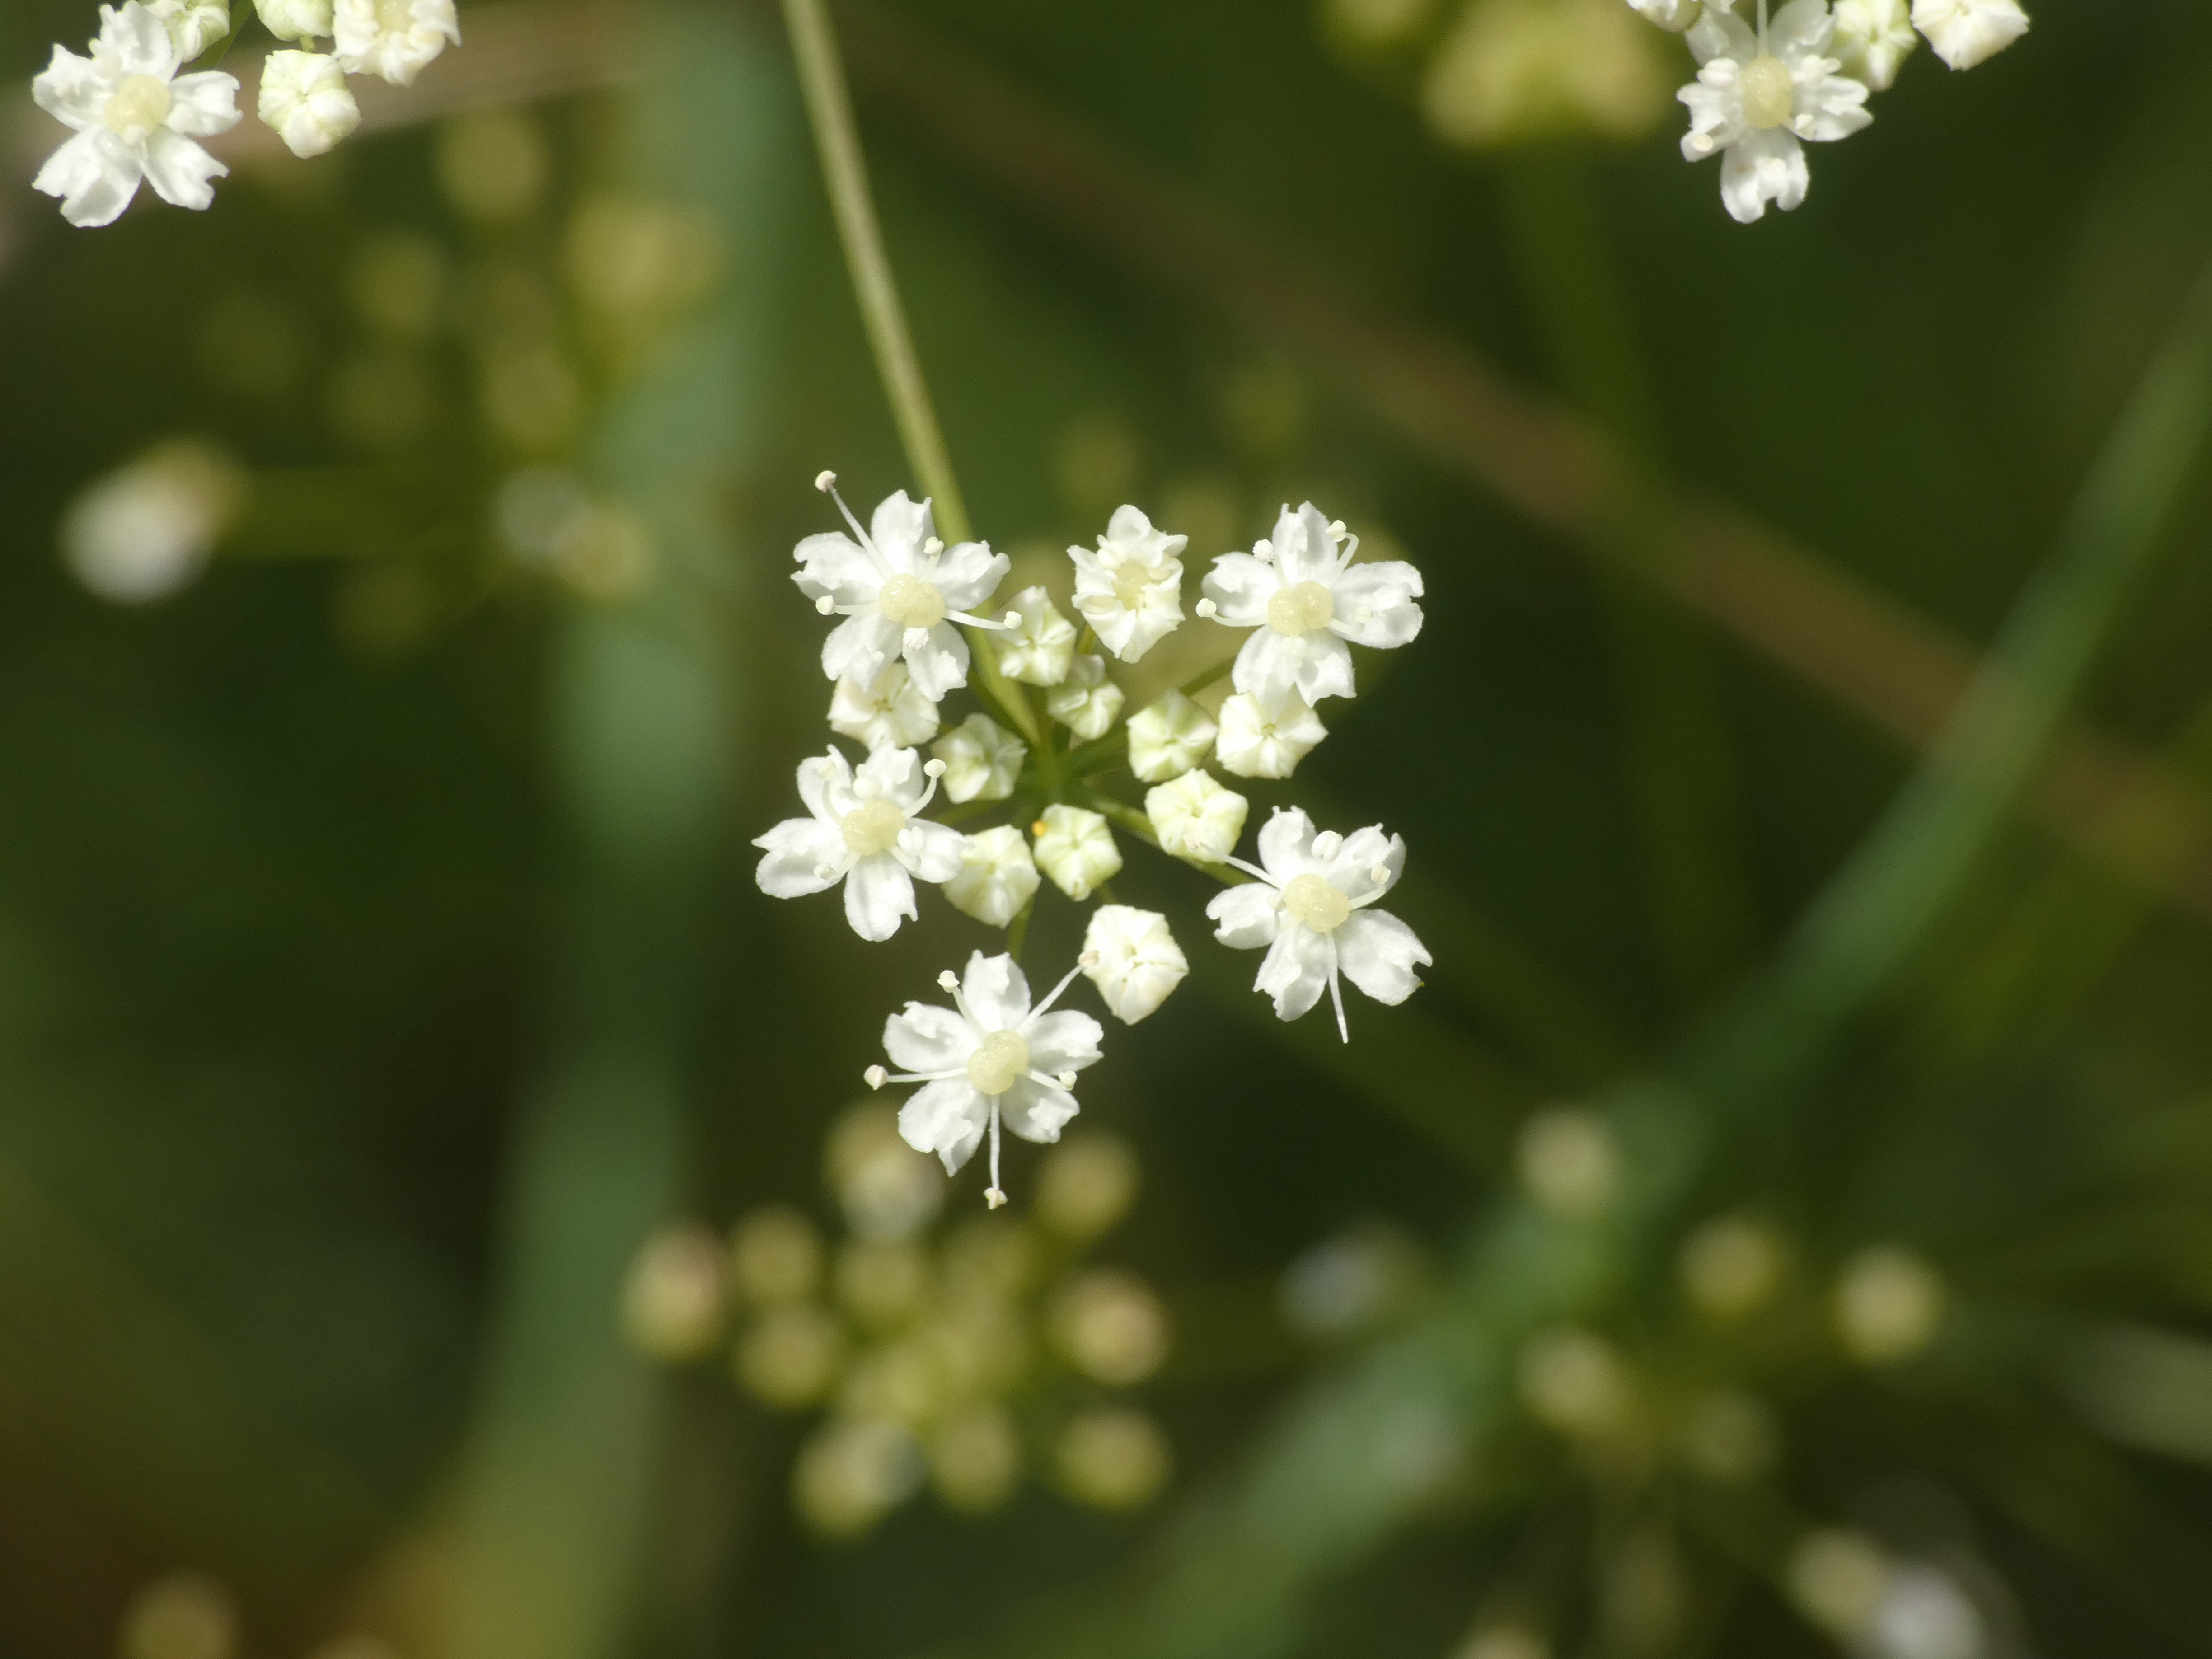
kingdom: Plantae
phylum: Tracheophyta
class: Magnoliopsida
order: Apiales
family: Apiaceae
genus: Pimpinella
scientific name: Pimpinella saxifraga
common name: Almindelig pimpinelle
